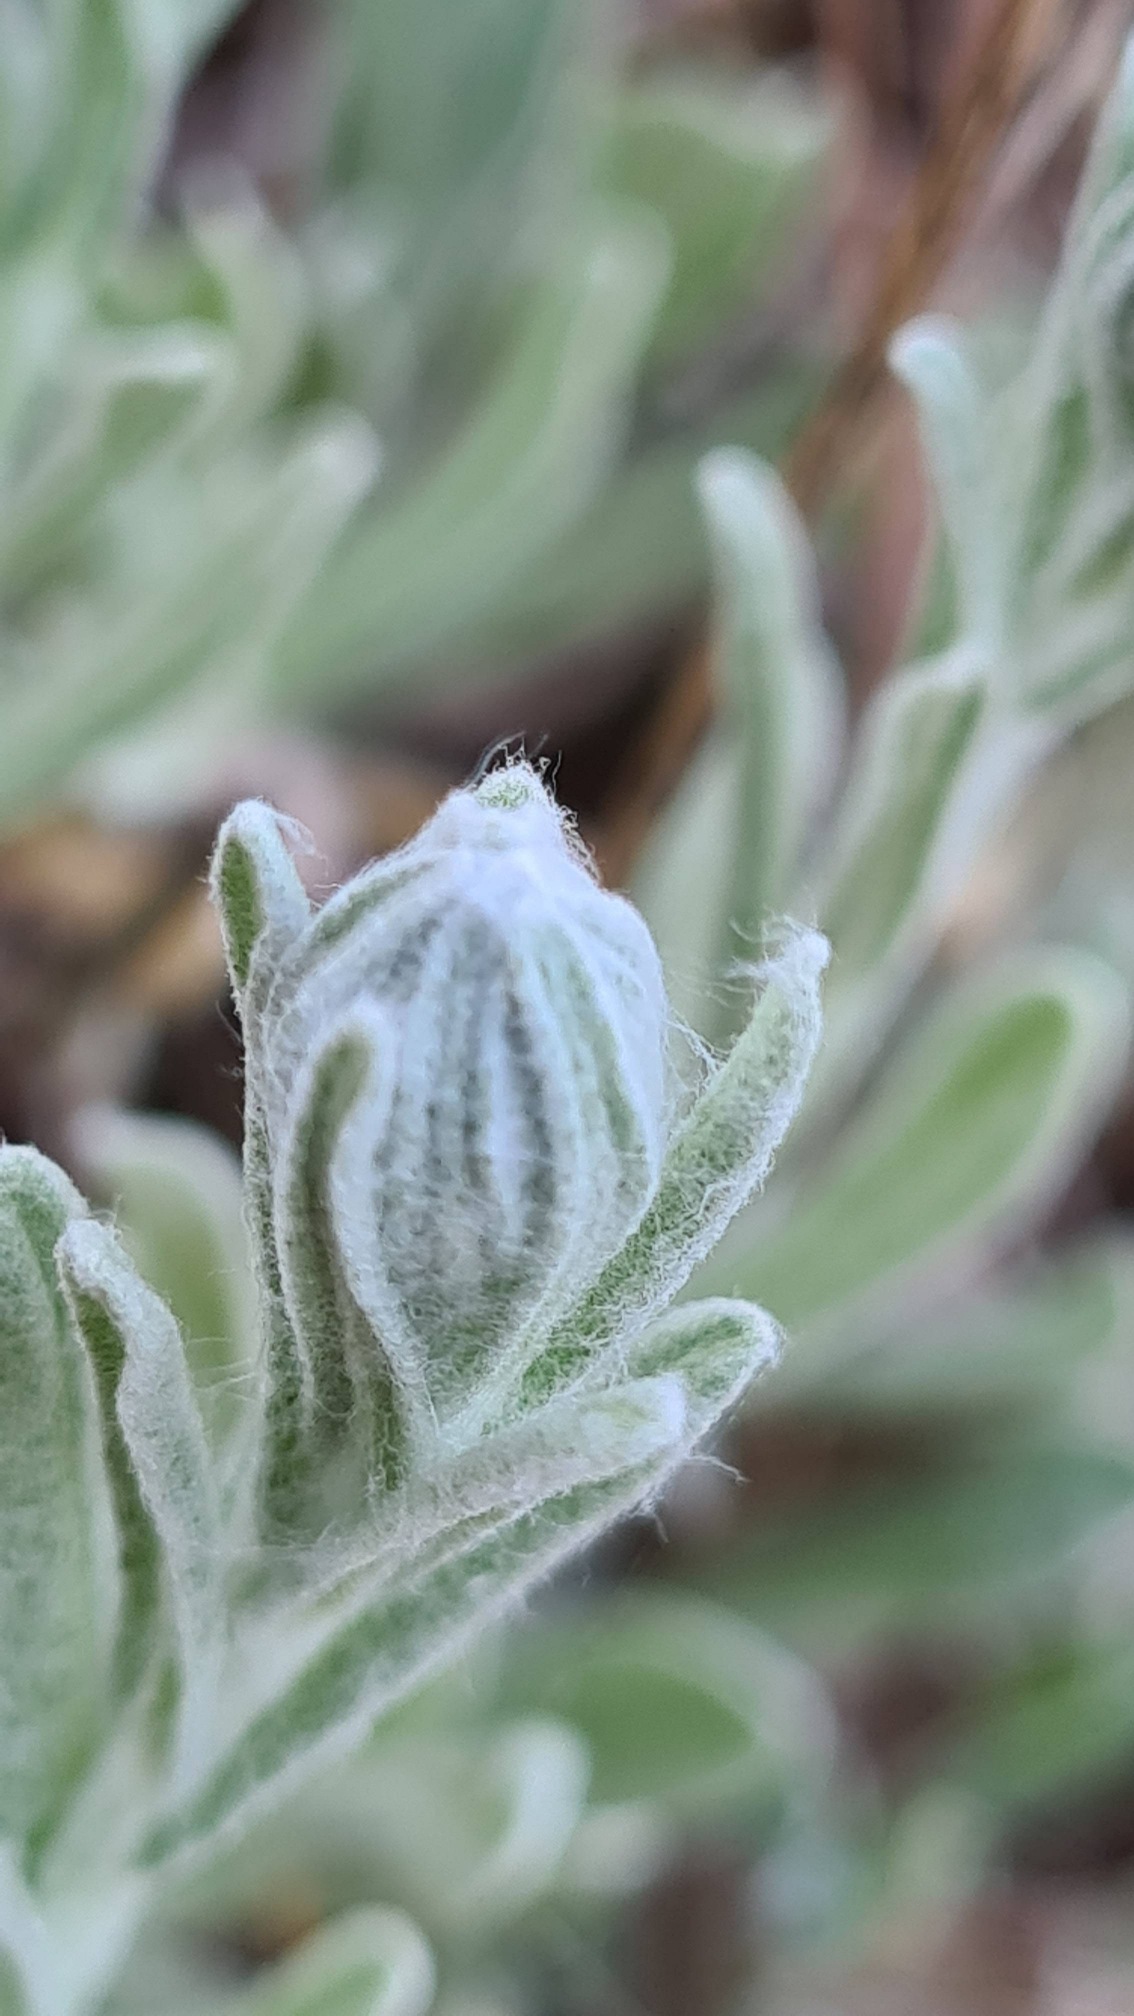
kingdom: Plantae
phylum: Tracheophyta
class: Magnoliopsida
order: Asterales
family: Asteraceae
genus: Helichrysum
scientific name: Helichrysum arenarium
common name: Gul evighedsblomst
